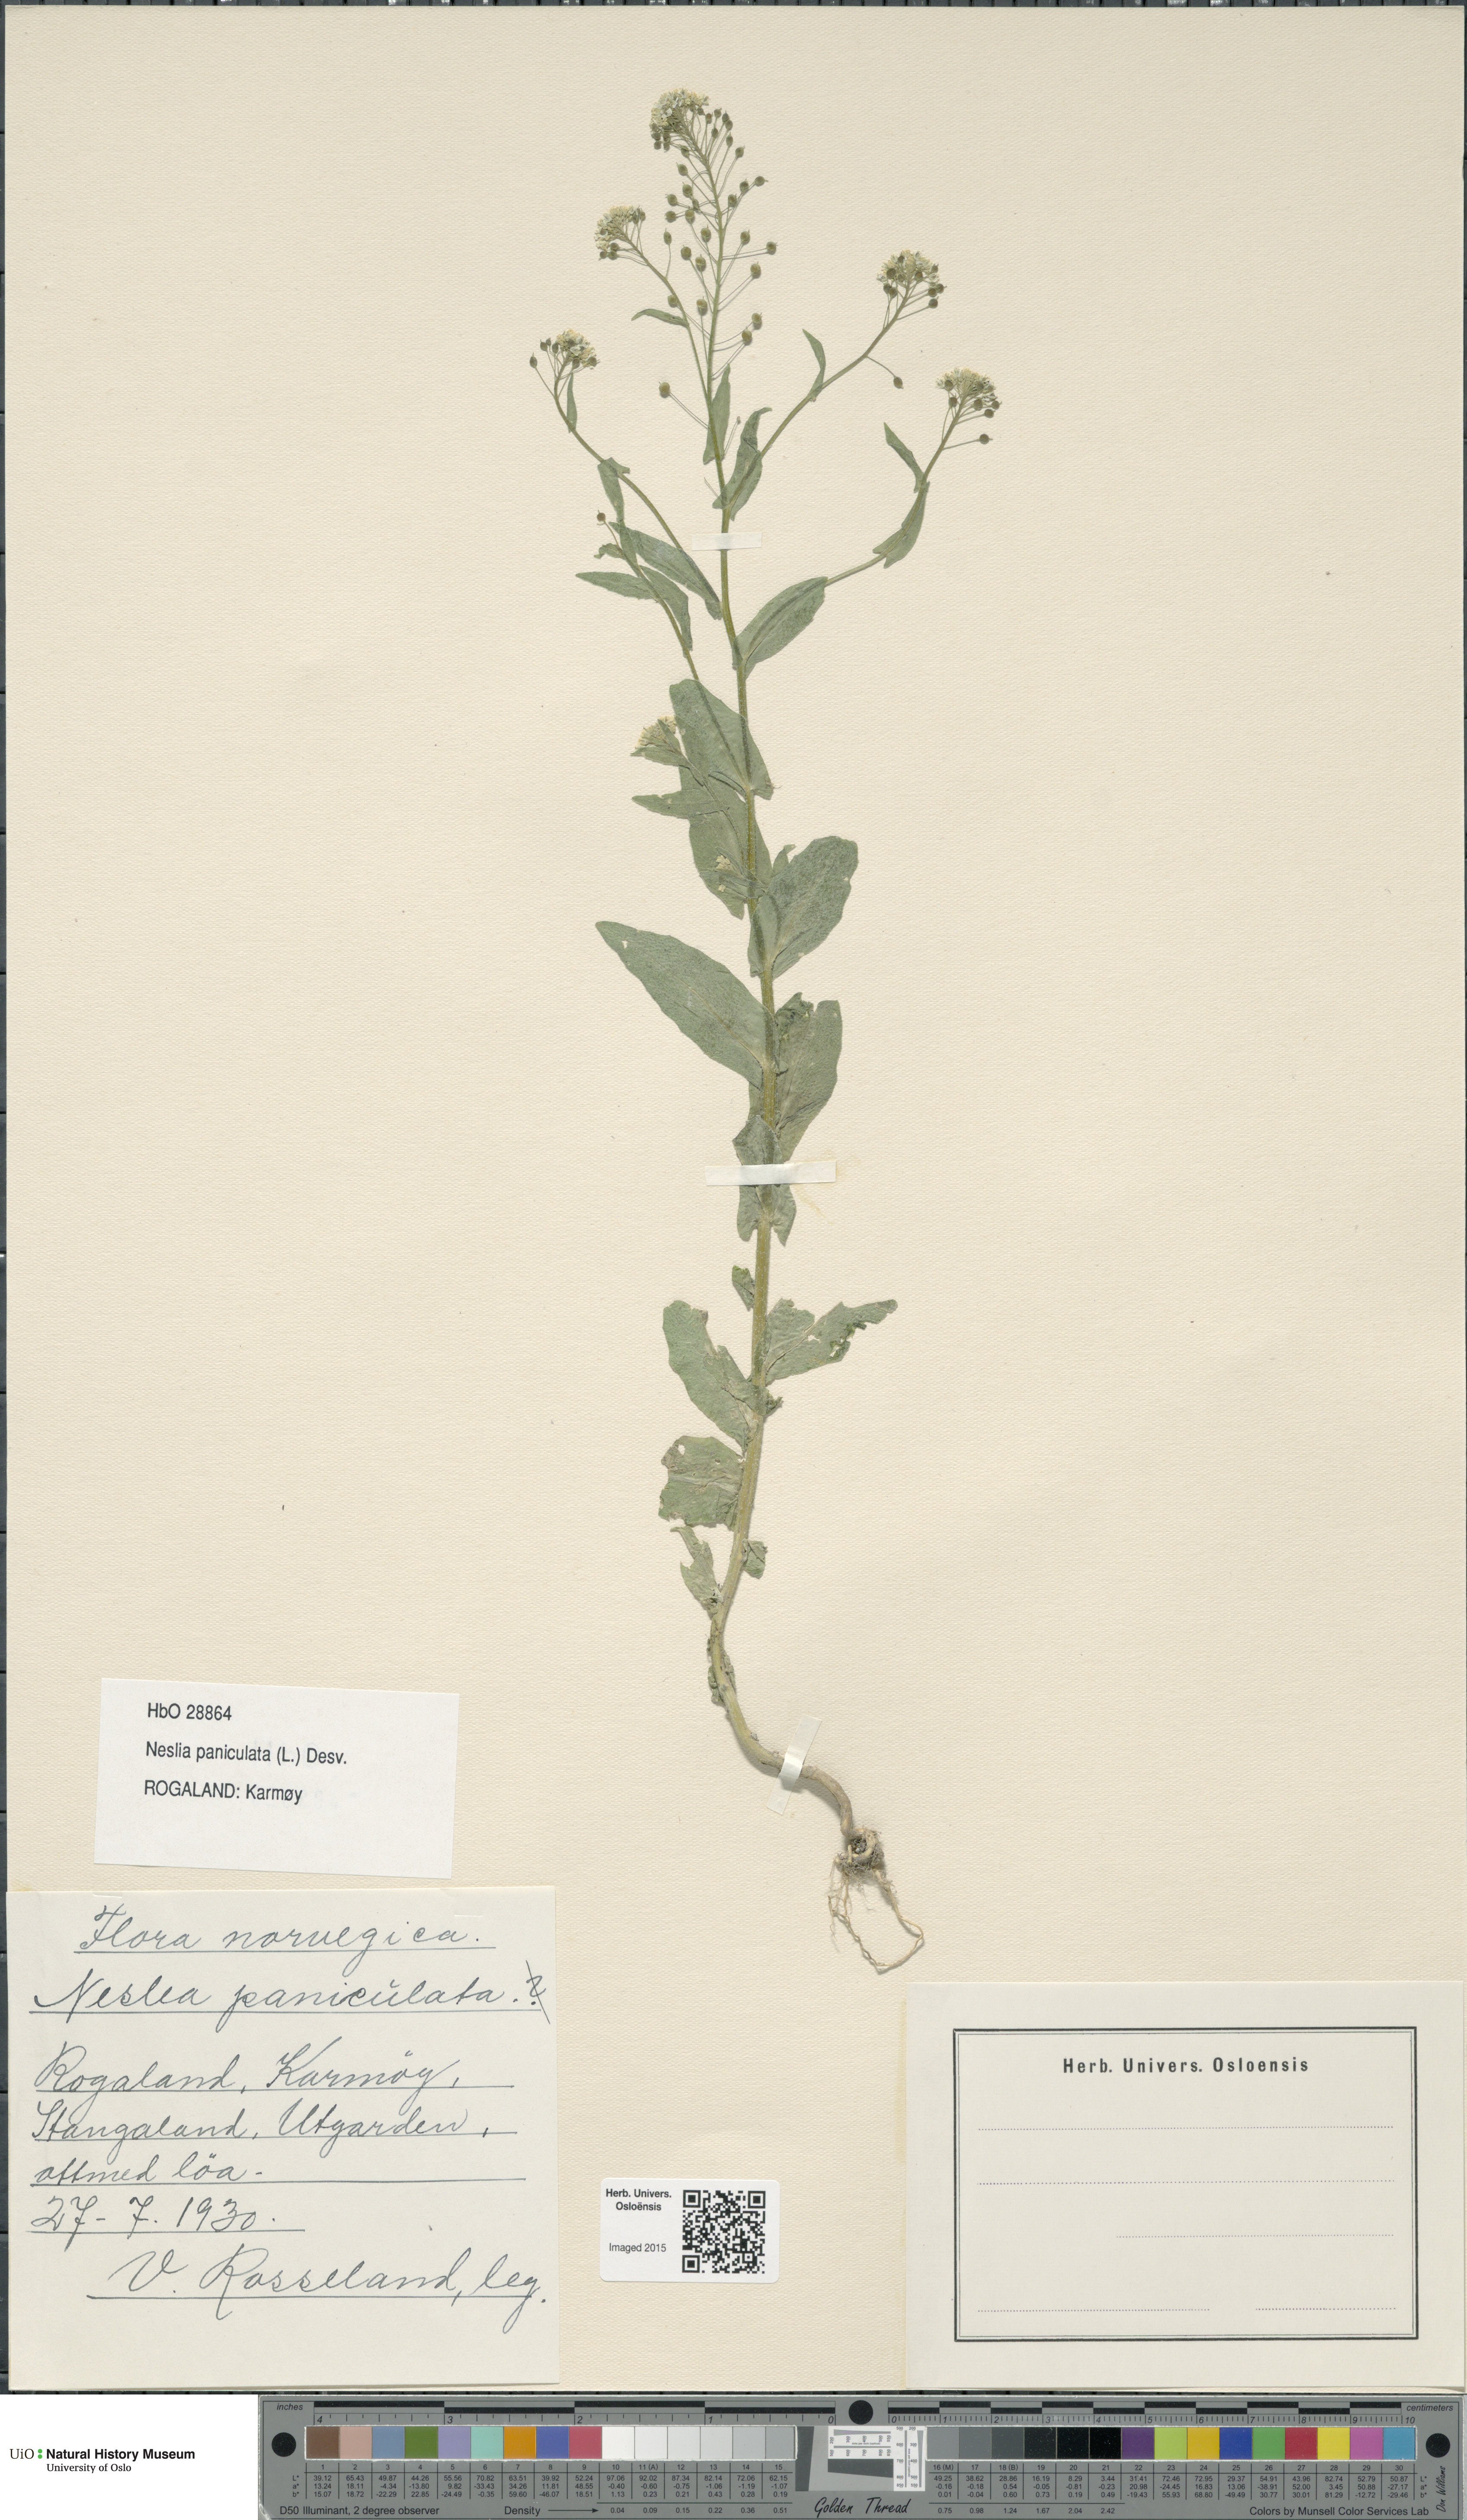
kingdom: Plantae
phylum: Tracheophyta
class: Magnoliopsida
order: Brassicales
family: Brassicaceae
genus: Neslia
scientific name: Neslia paniculata
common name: Ball mustard
